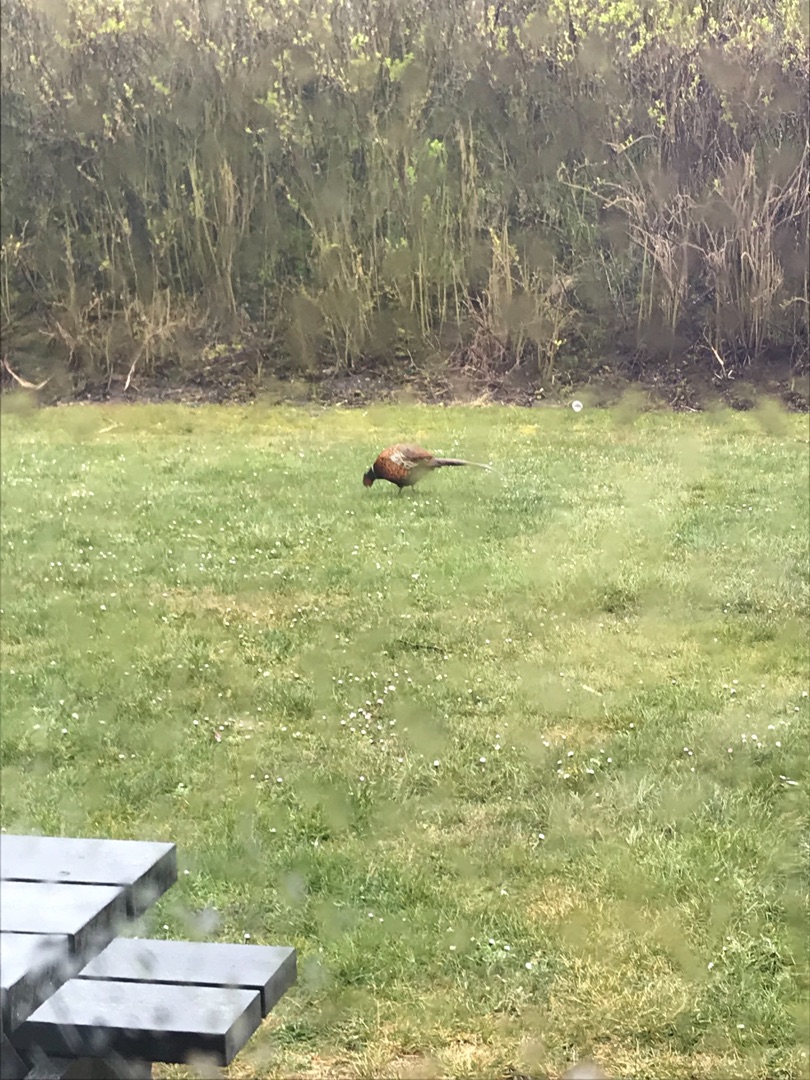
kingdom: Animalia
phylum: Chordata
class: Aves
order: Galliformes
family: Phasianidae
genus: Phasianus
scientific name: Phasianus colchicus
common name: Fasan
